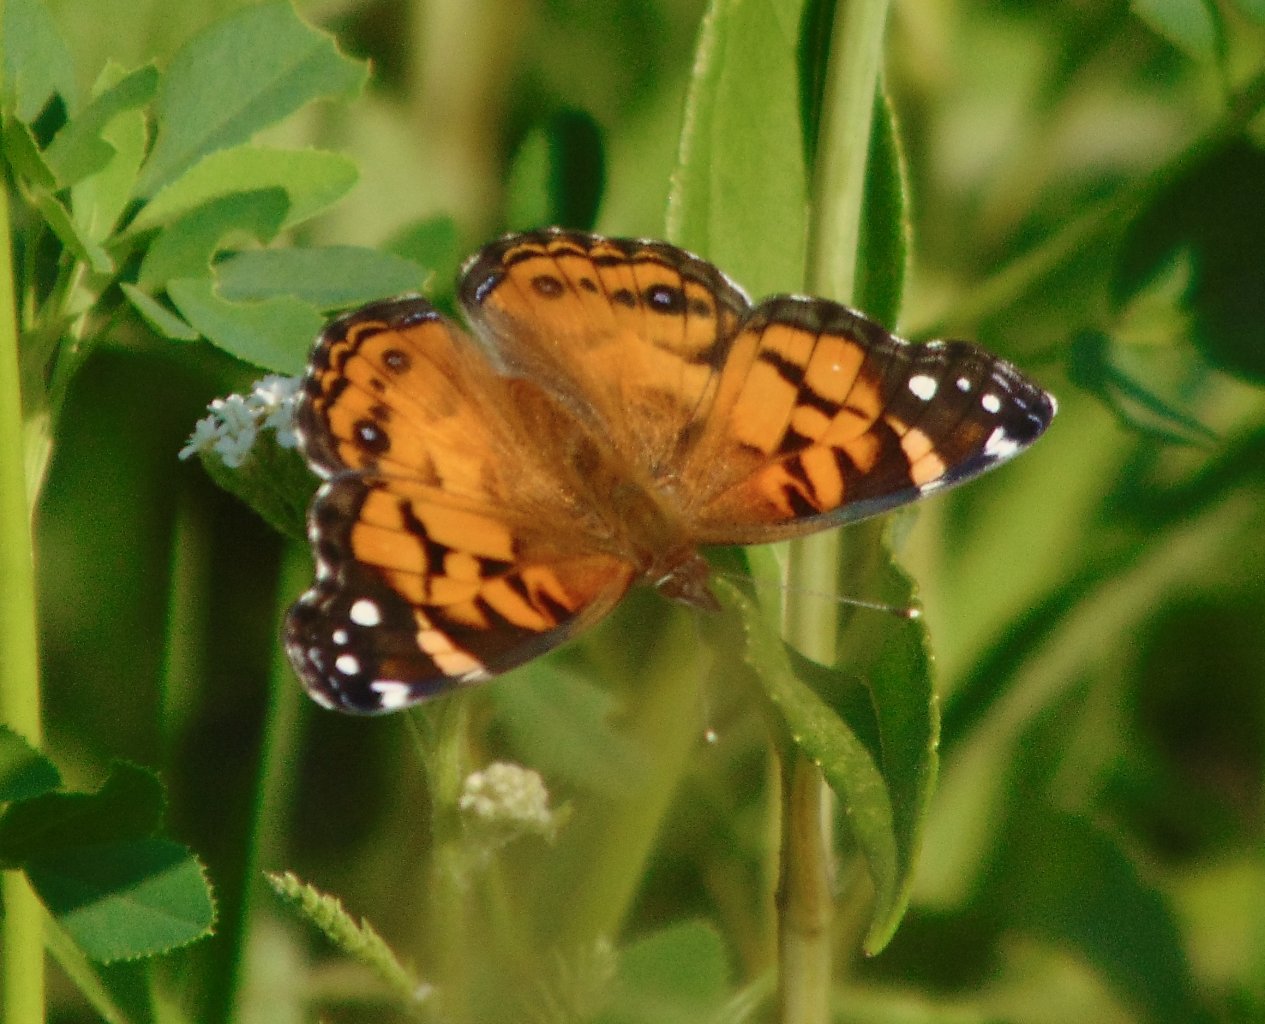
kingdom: Animalia
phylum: Arthropoda
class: Insecta
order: Lepidoptera
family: Nymphalidae
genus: Vanessa
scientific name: Vanessa virginiensis
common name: American Lady
